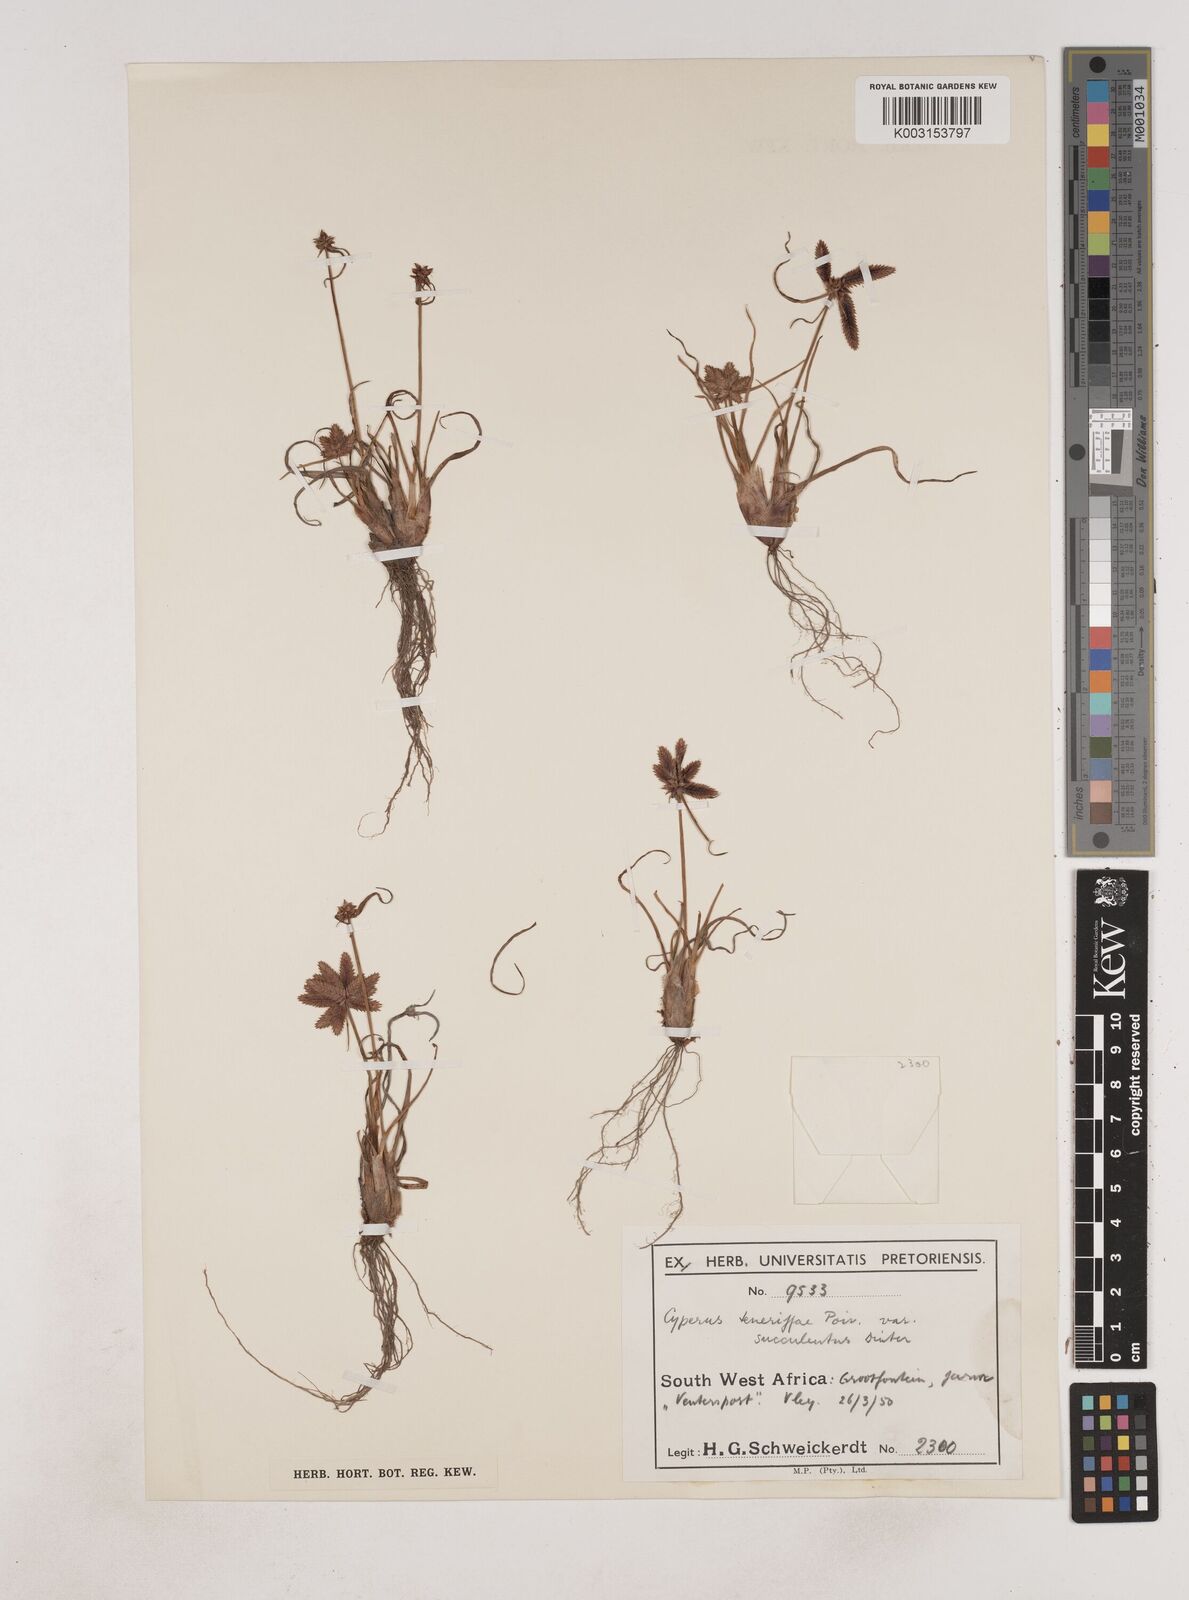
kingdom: Plantae
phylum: Tracheophyta
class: Liliopsida
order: Poales
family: Cyperaceae
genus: Cyperus
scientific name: Cyperus rubicundus
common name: Coco-grass
